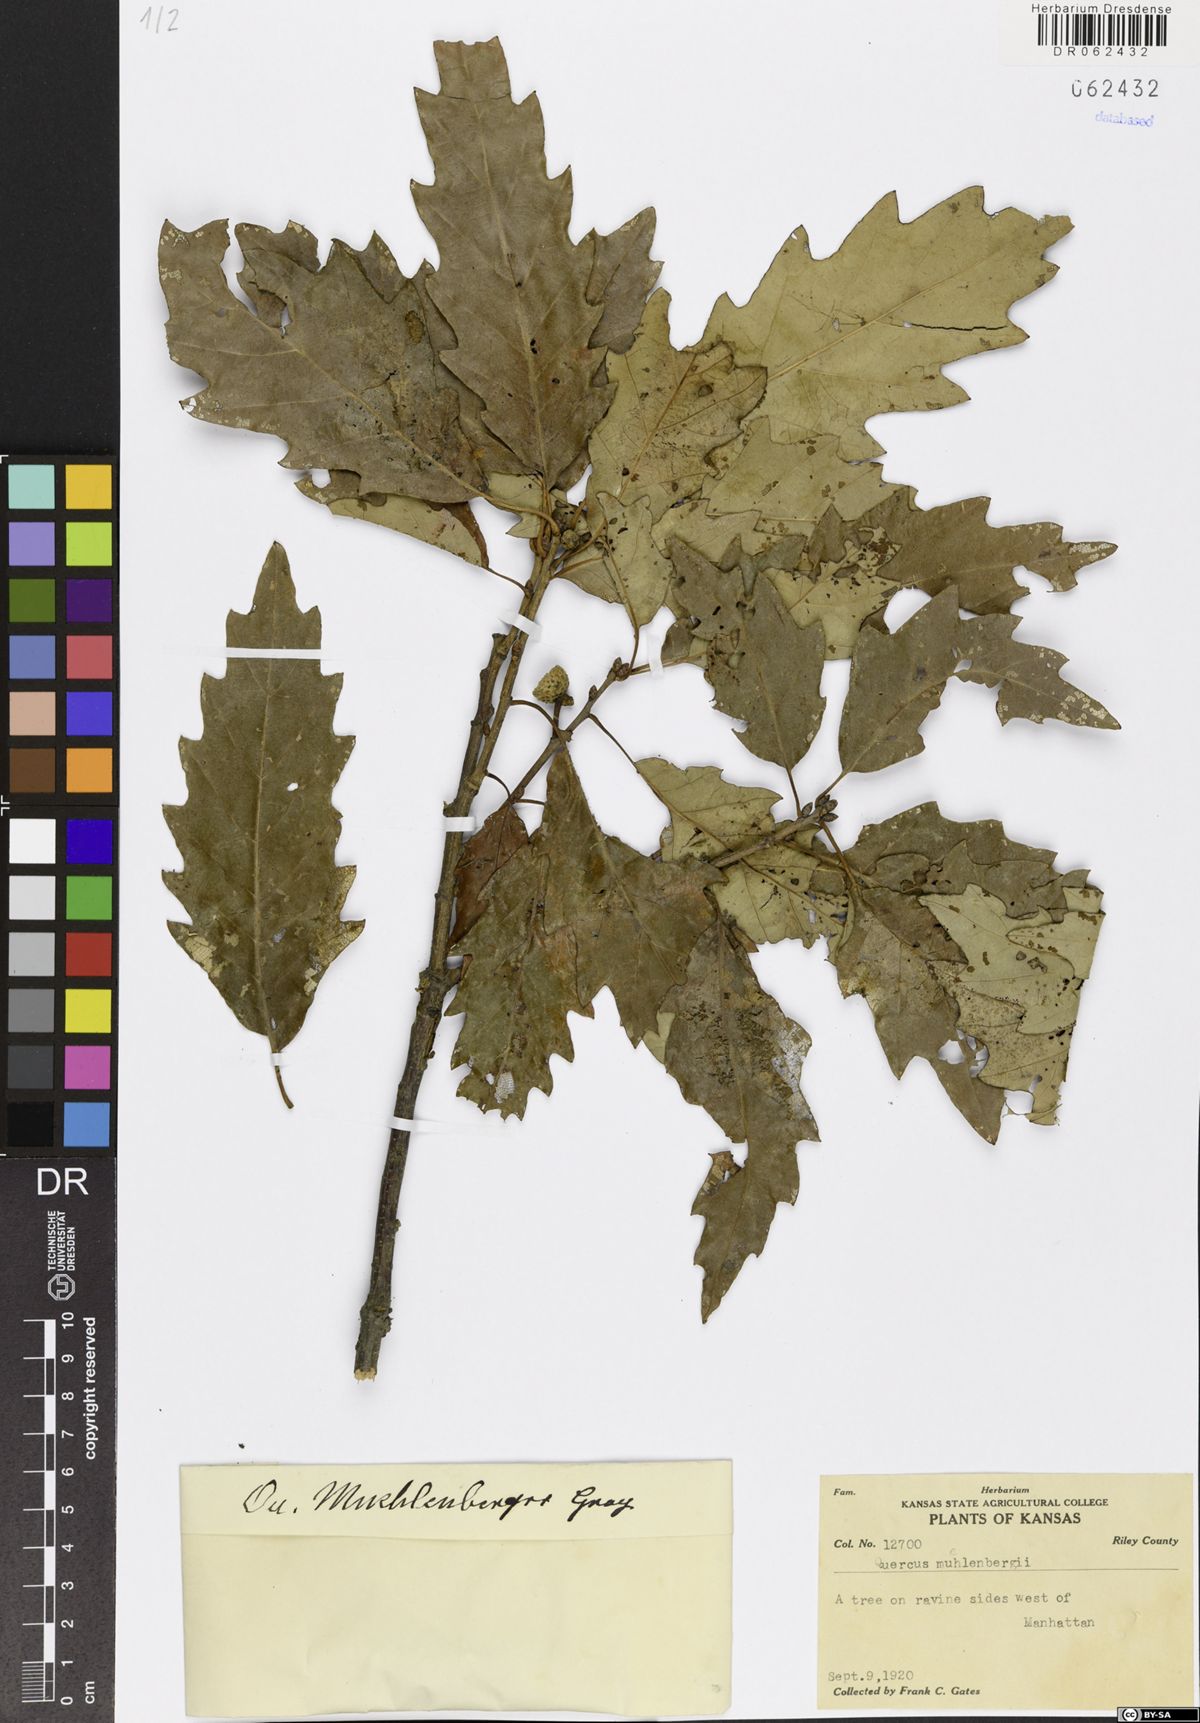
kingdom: Plantae
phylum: Tracheophyta
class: Magnoliopsida
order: Fagales
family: Fagaceae
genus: Quercus
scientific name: Quercus muehlenbergii
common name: Chinkapin oak
